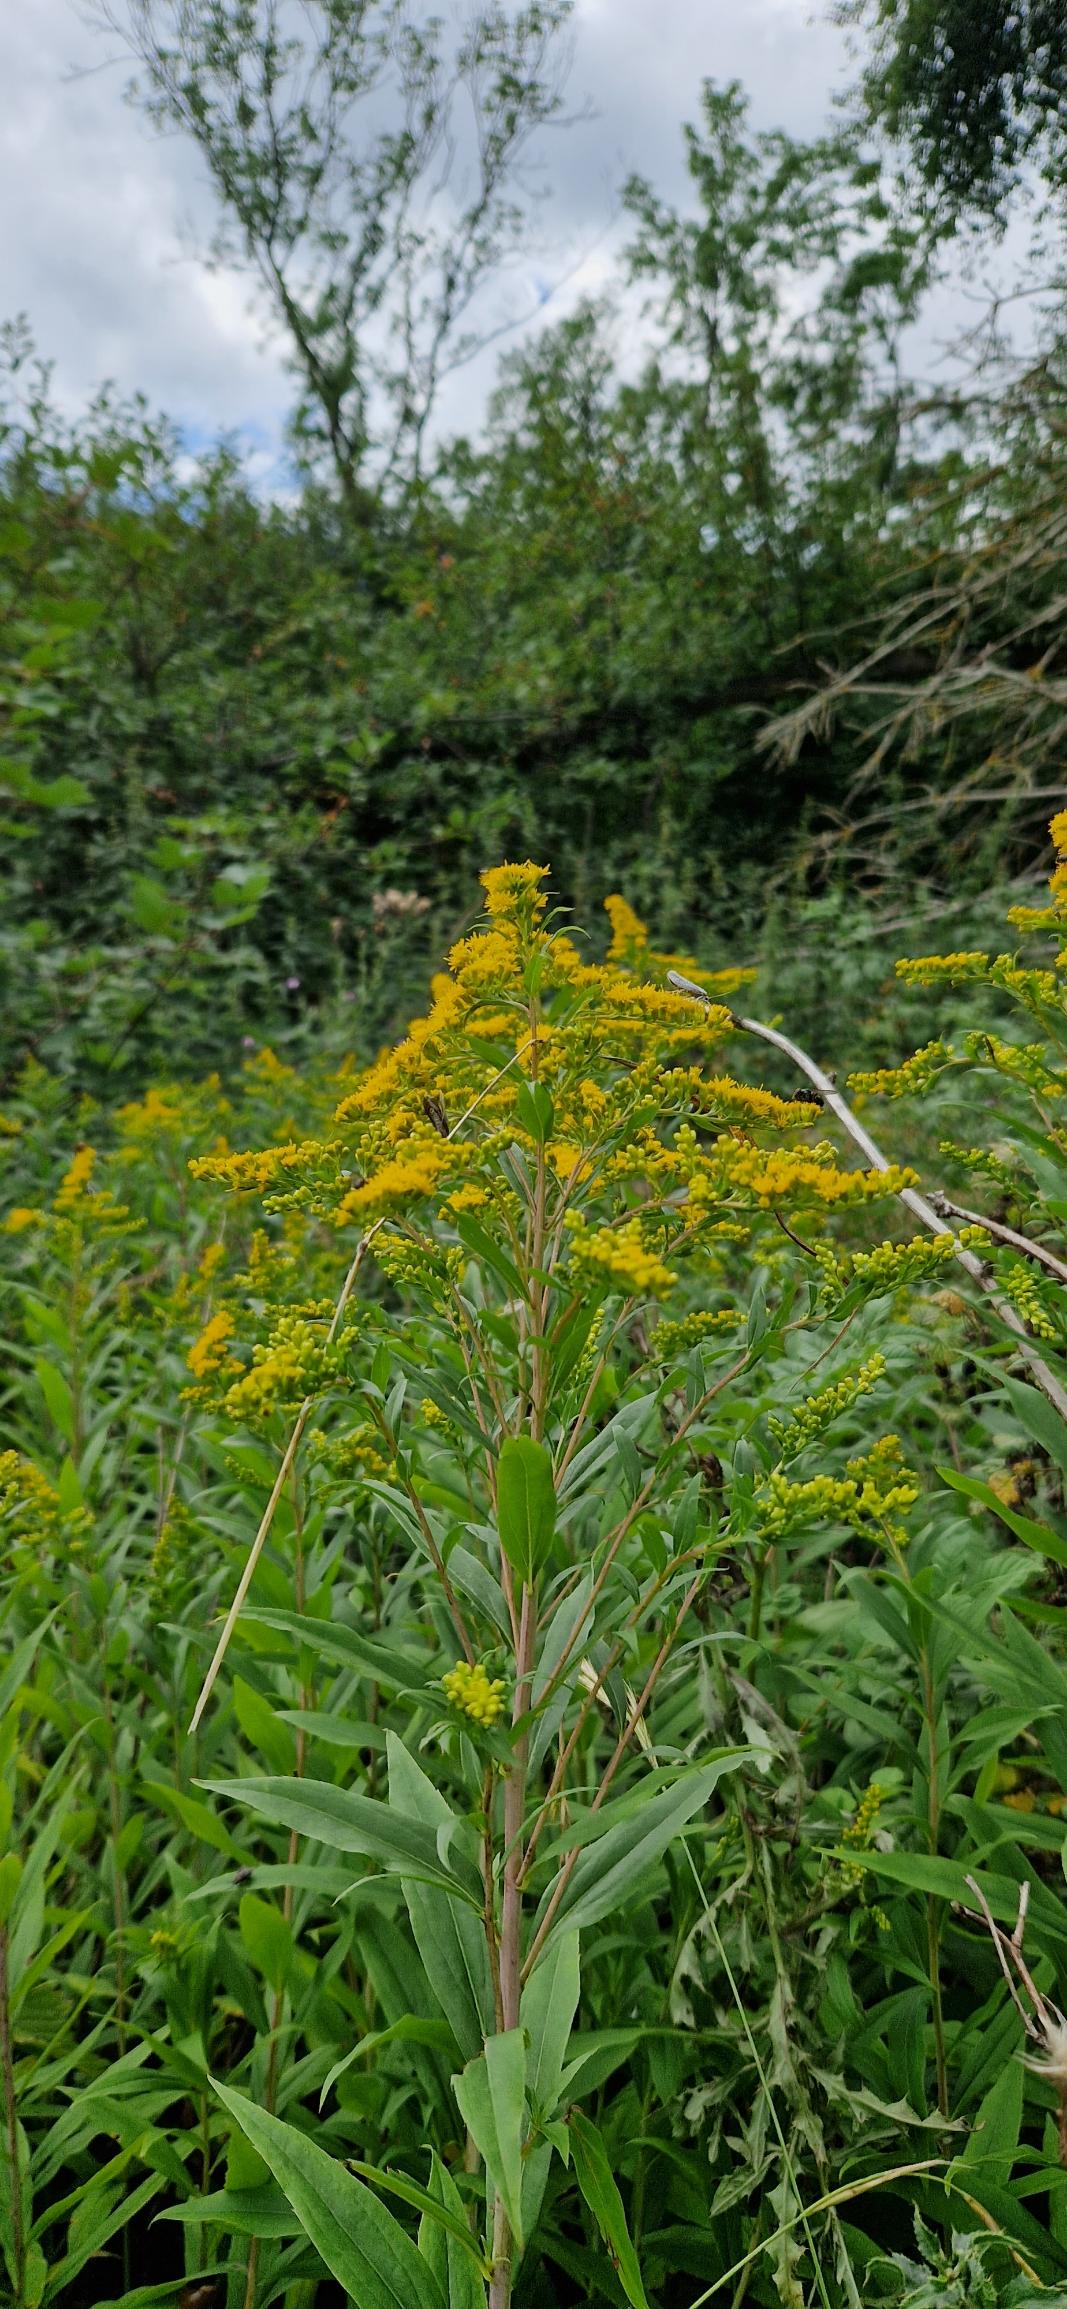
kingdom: Plantae
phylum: Tracheophyta
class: Magnoliopsida
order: Asterales
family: Asteraceae
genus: Solidago
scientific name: Solidago canadensis
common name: Kanadisk gyldenris
